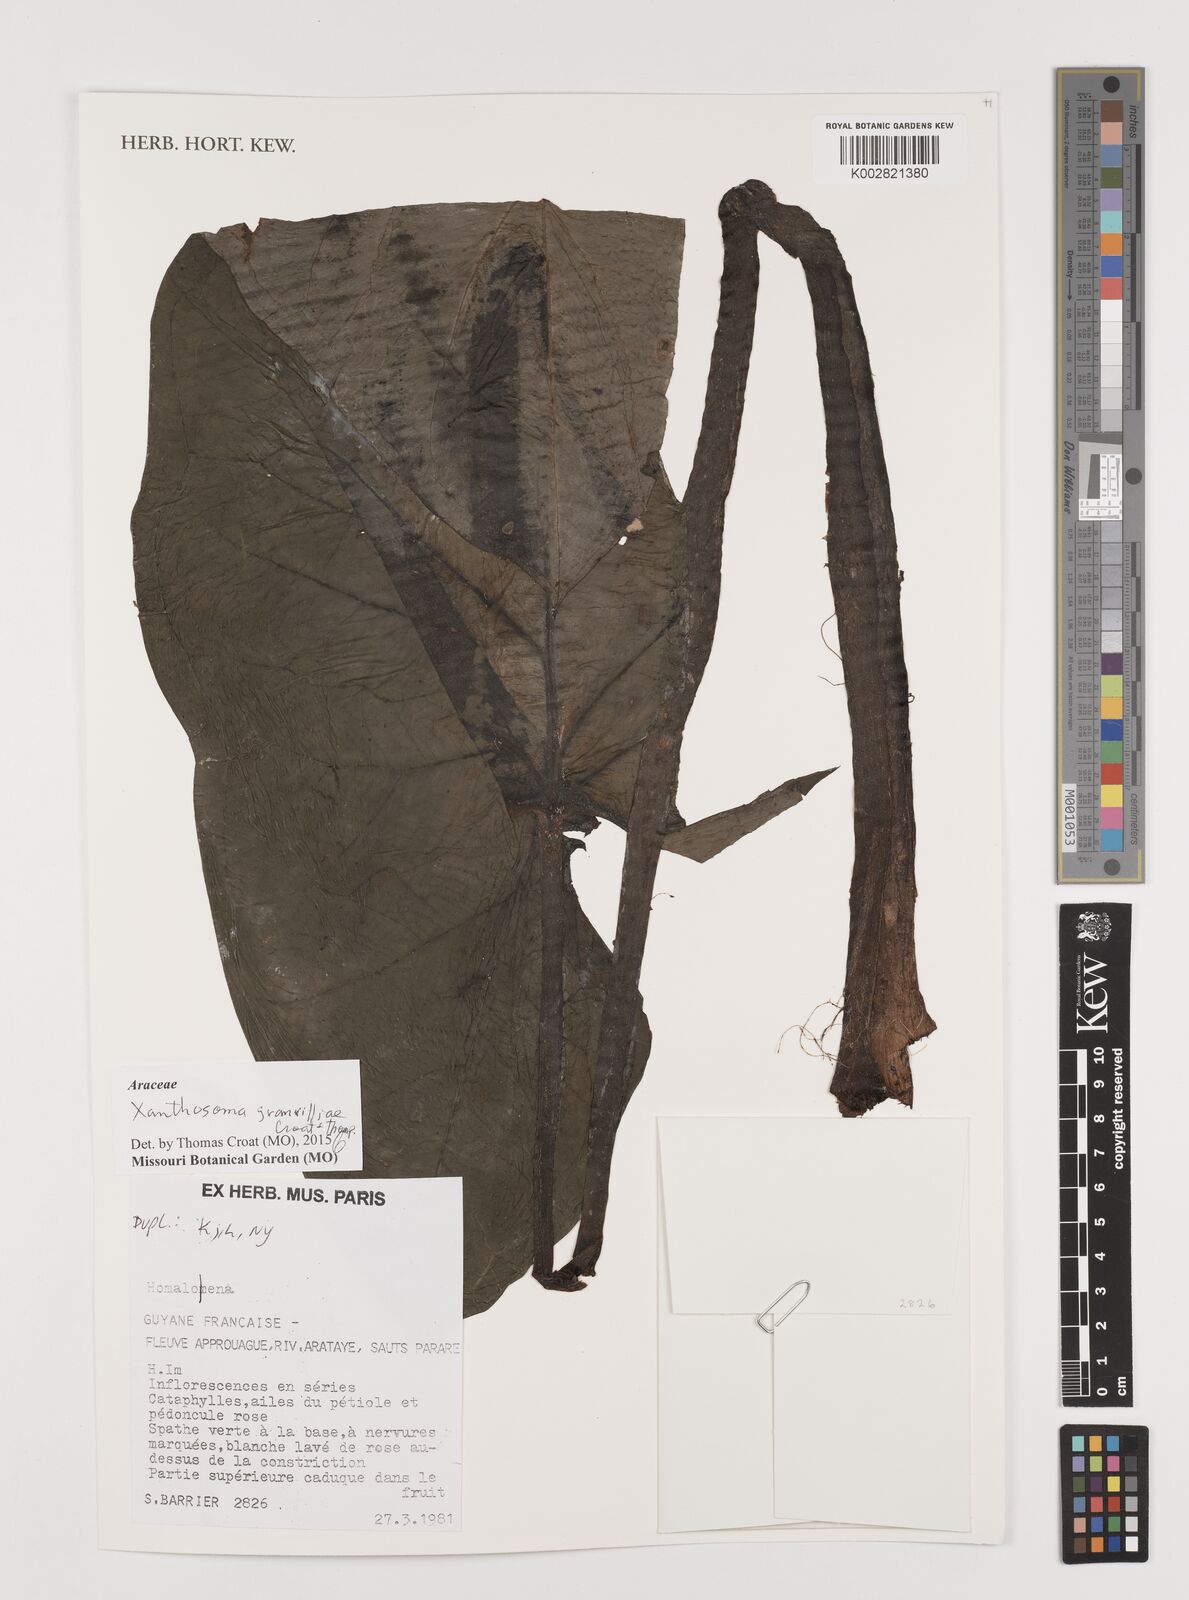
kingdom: Plantae
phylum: Tracheophyta
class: Liliopsida
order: Alismatales
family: Araceae
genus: Xanthosoma
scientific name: Xanthosoma granvillei
